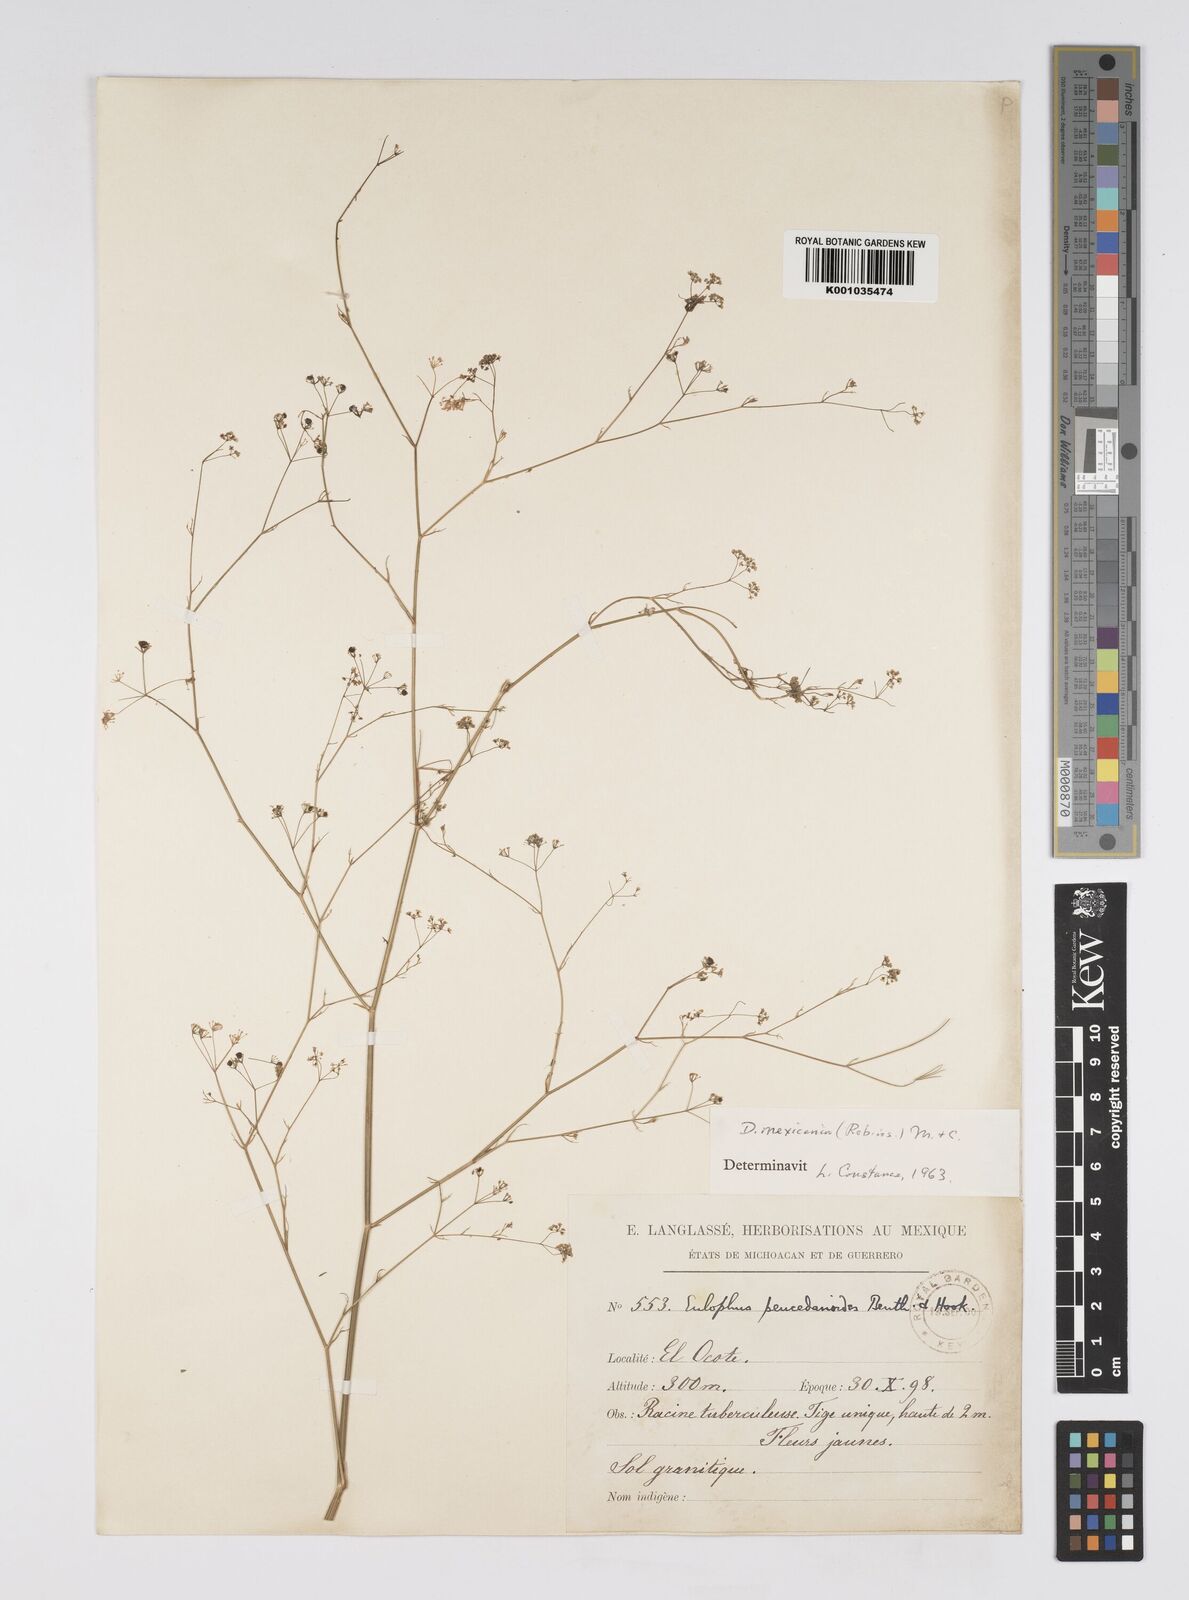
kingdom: Plantae
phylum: Tracheophyta
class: Magnoliopsida
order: Apiales
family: Apiaceae
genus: Donnellsmithia
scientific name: Donnellsmithia mexicana
